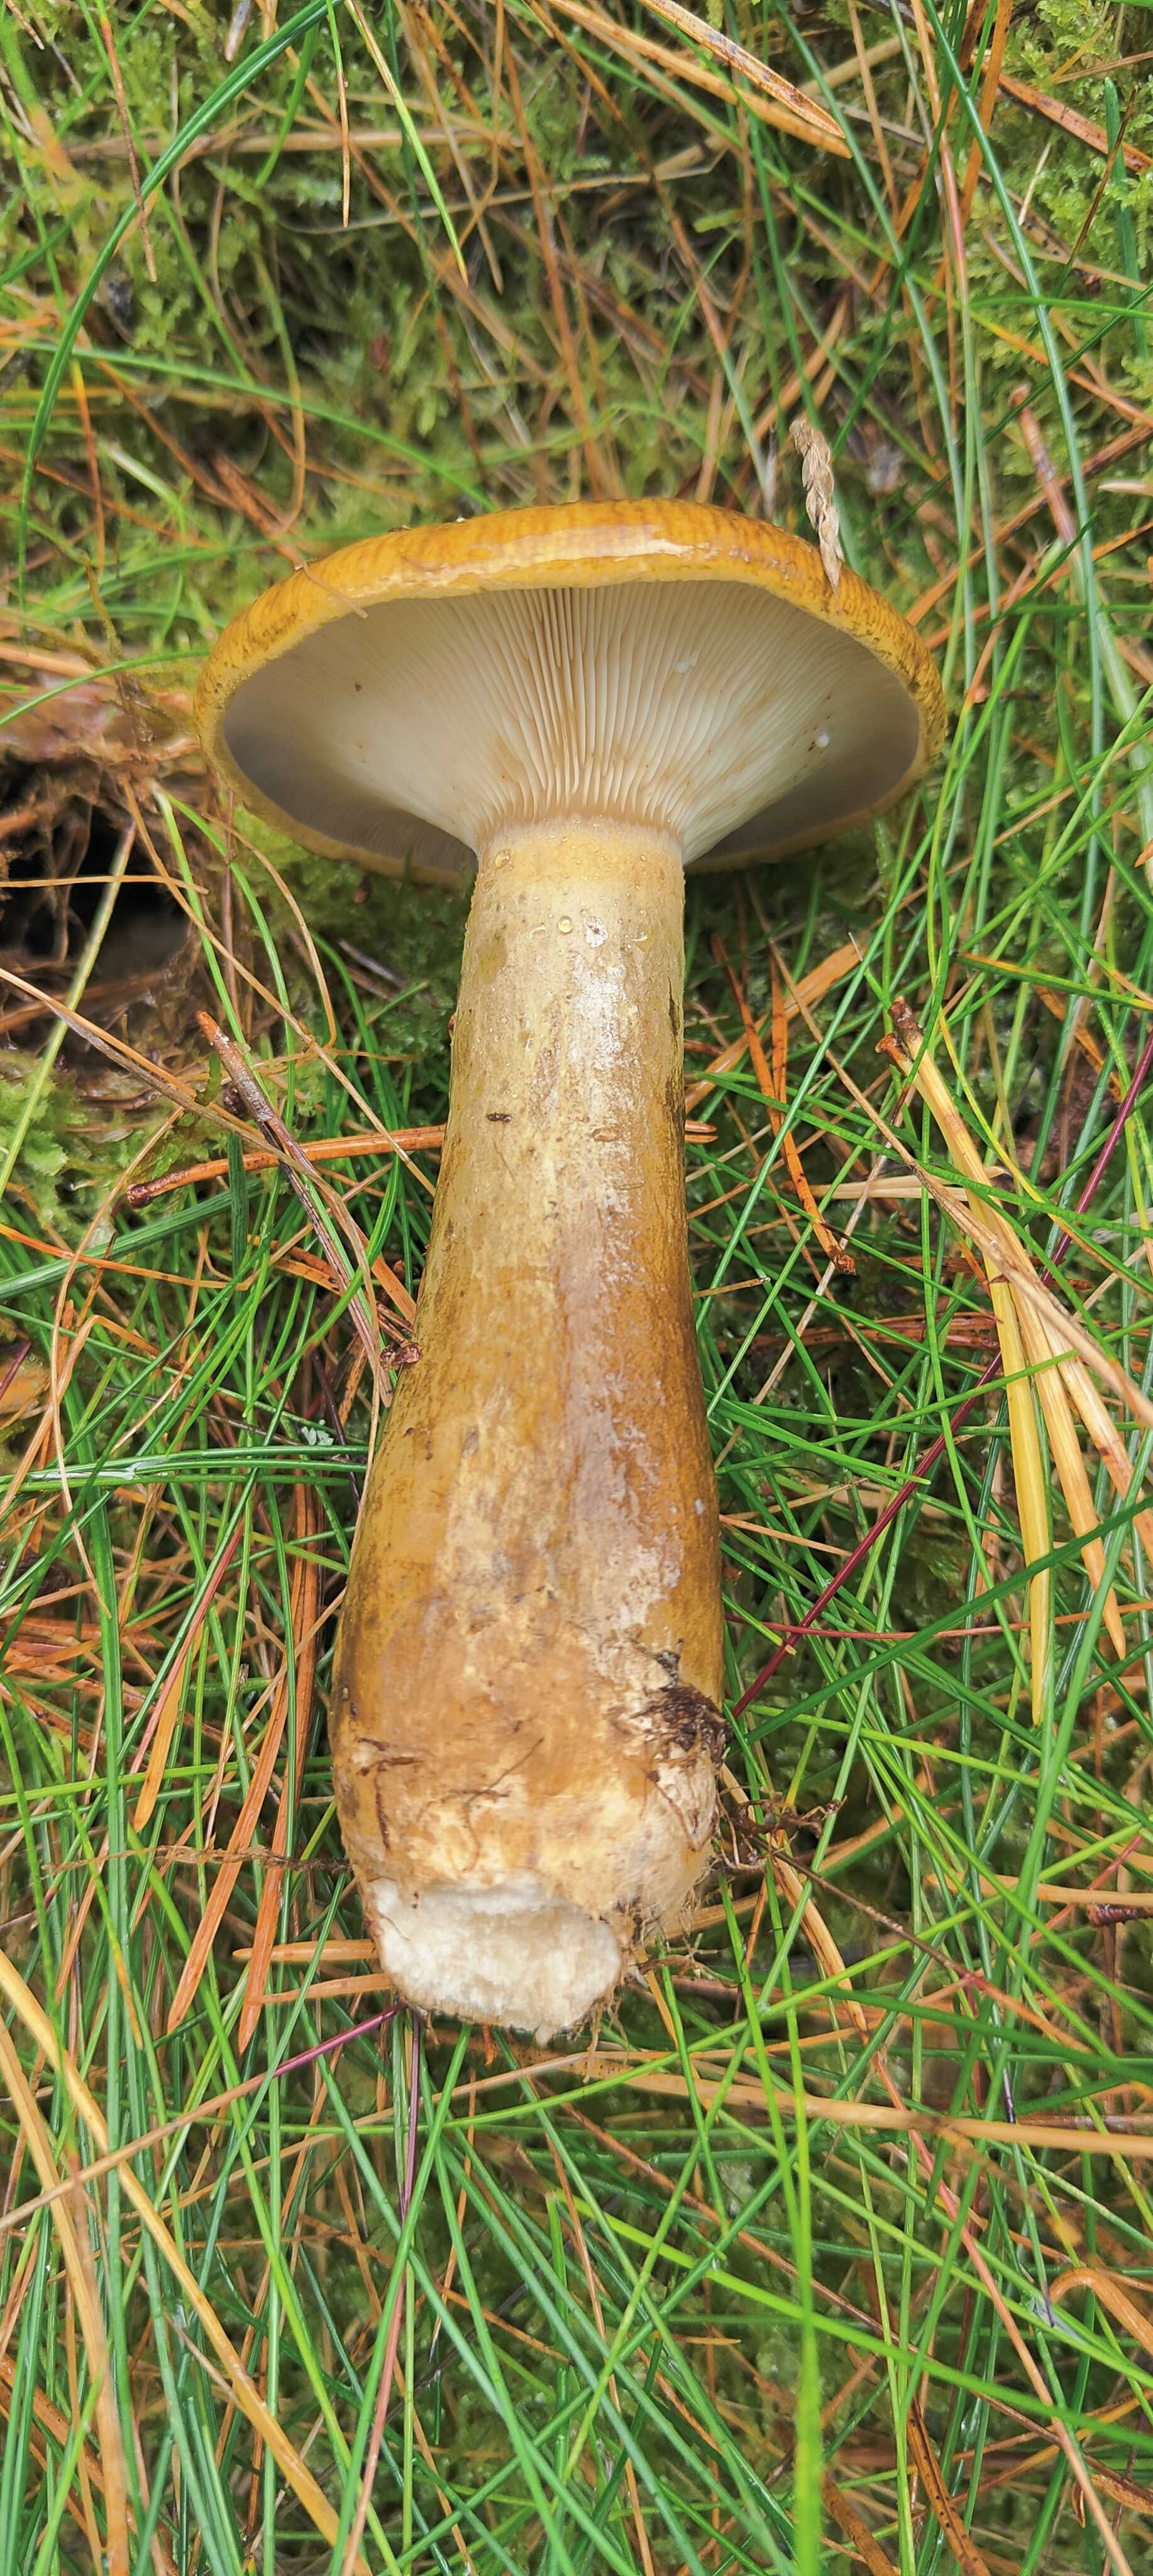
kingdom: Fungi
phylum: Basidiomycota
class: Agaricomycetes
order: Russulales
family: Russulaceae
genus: Lactarius
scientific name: Lactarius necator
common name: manddraber-mælkehat
